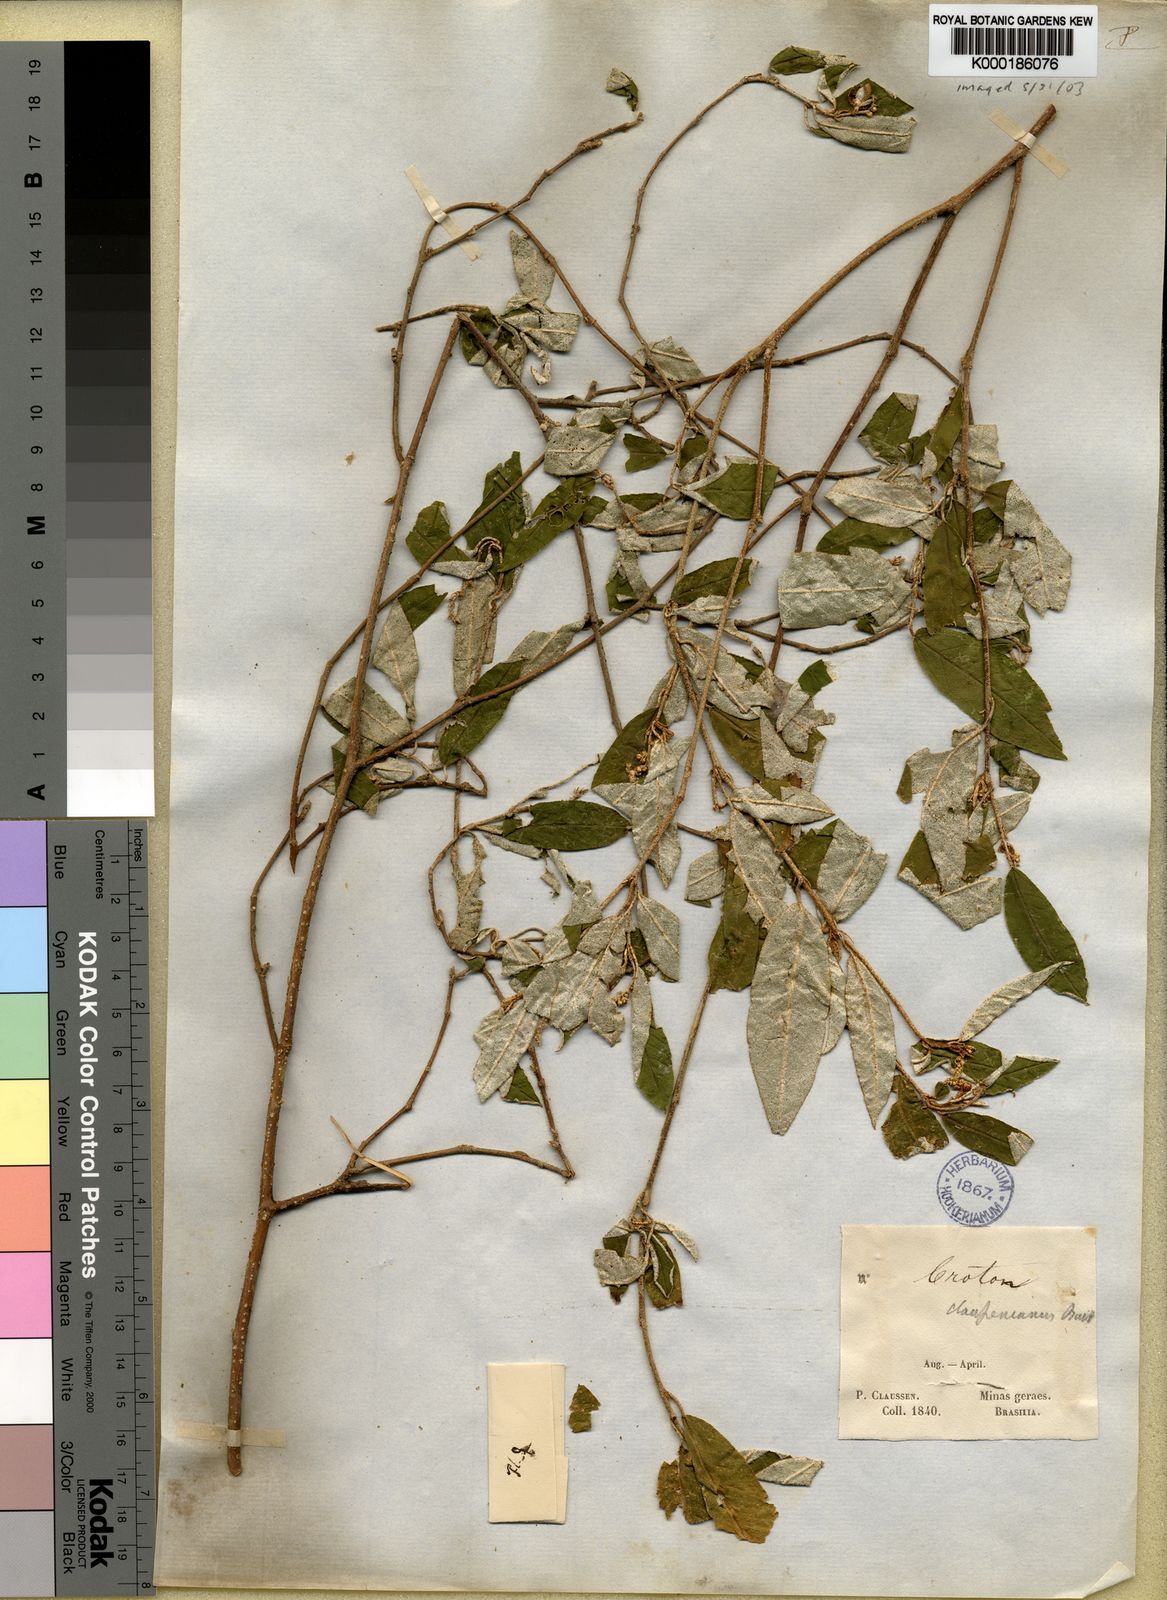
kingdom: Plantae
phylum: Tracheophyta
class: Magnoliopsida
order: Malpighiales
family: Euphorbiaceae
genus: Croton
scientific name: Croton claussenianus
